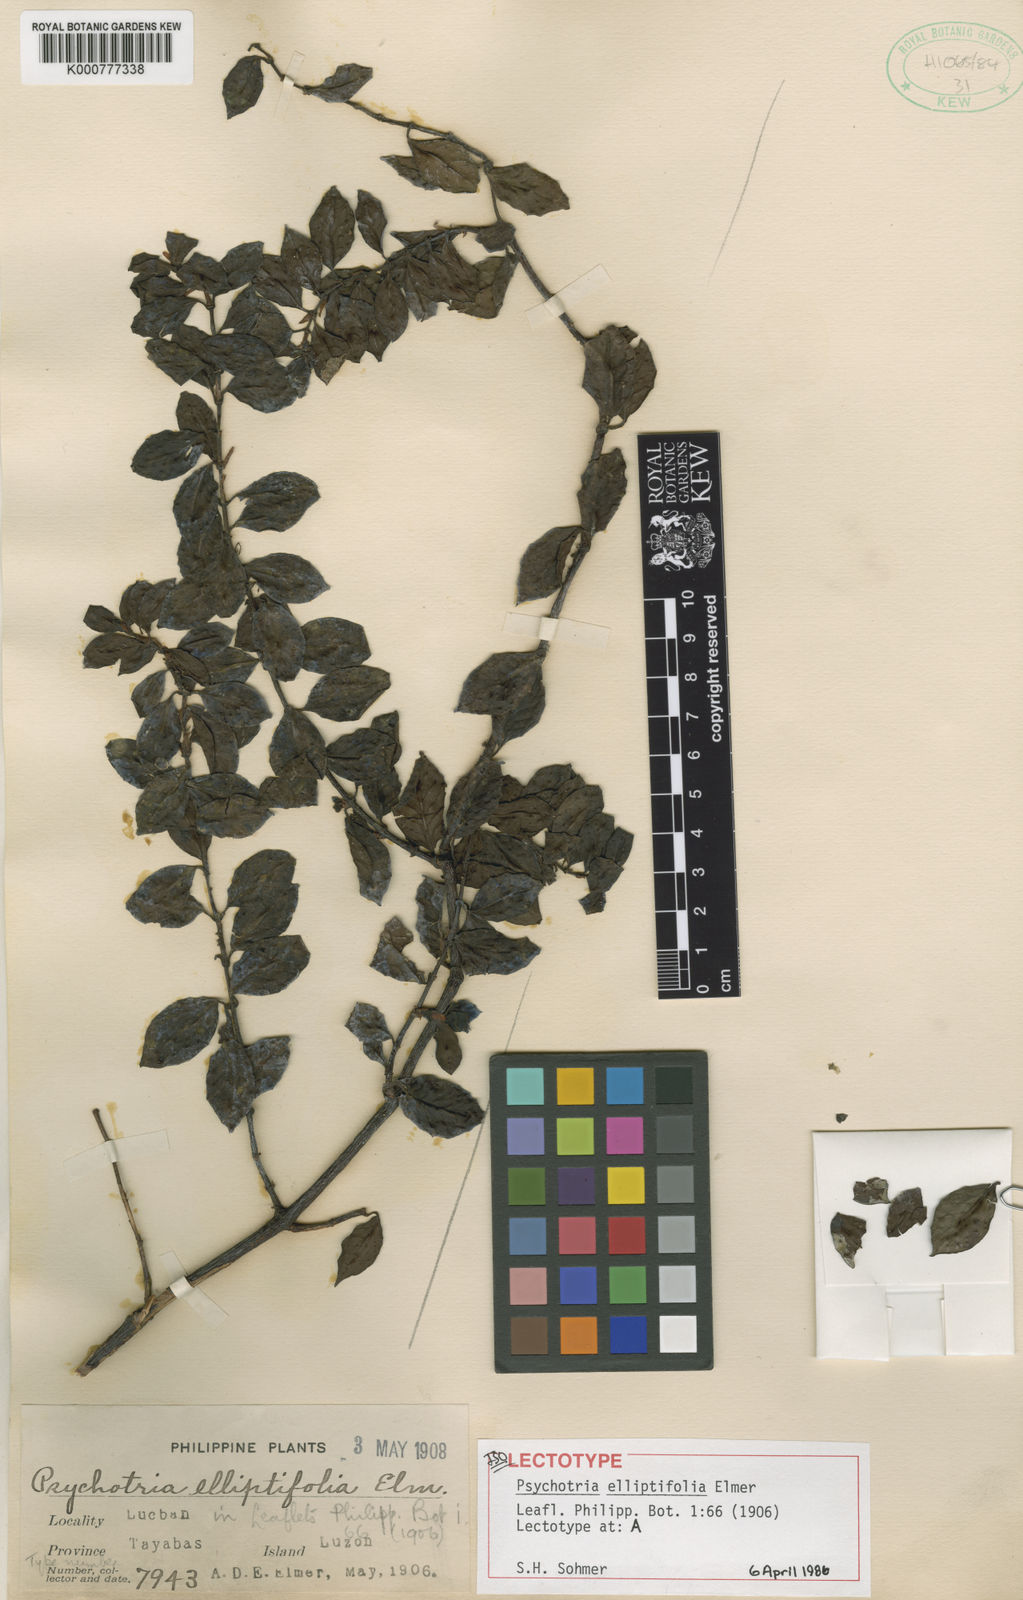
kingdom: Plantae
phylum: Tracheophyta
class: Magnoliopsida
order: Gentianales
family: Rubiaceae
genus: Psychotria
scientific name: Psychotria elliptifolia
